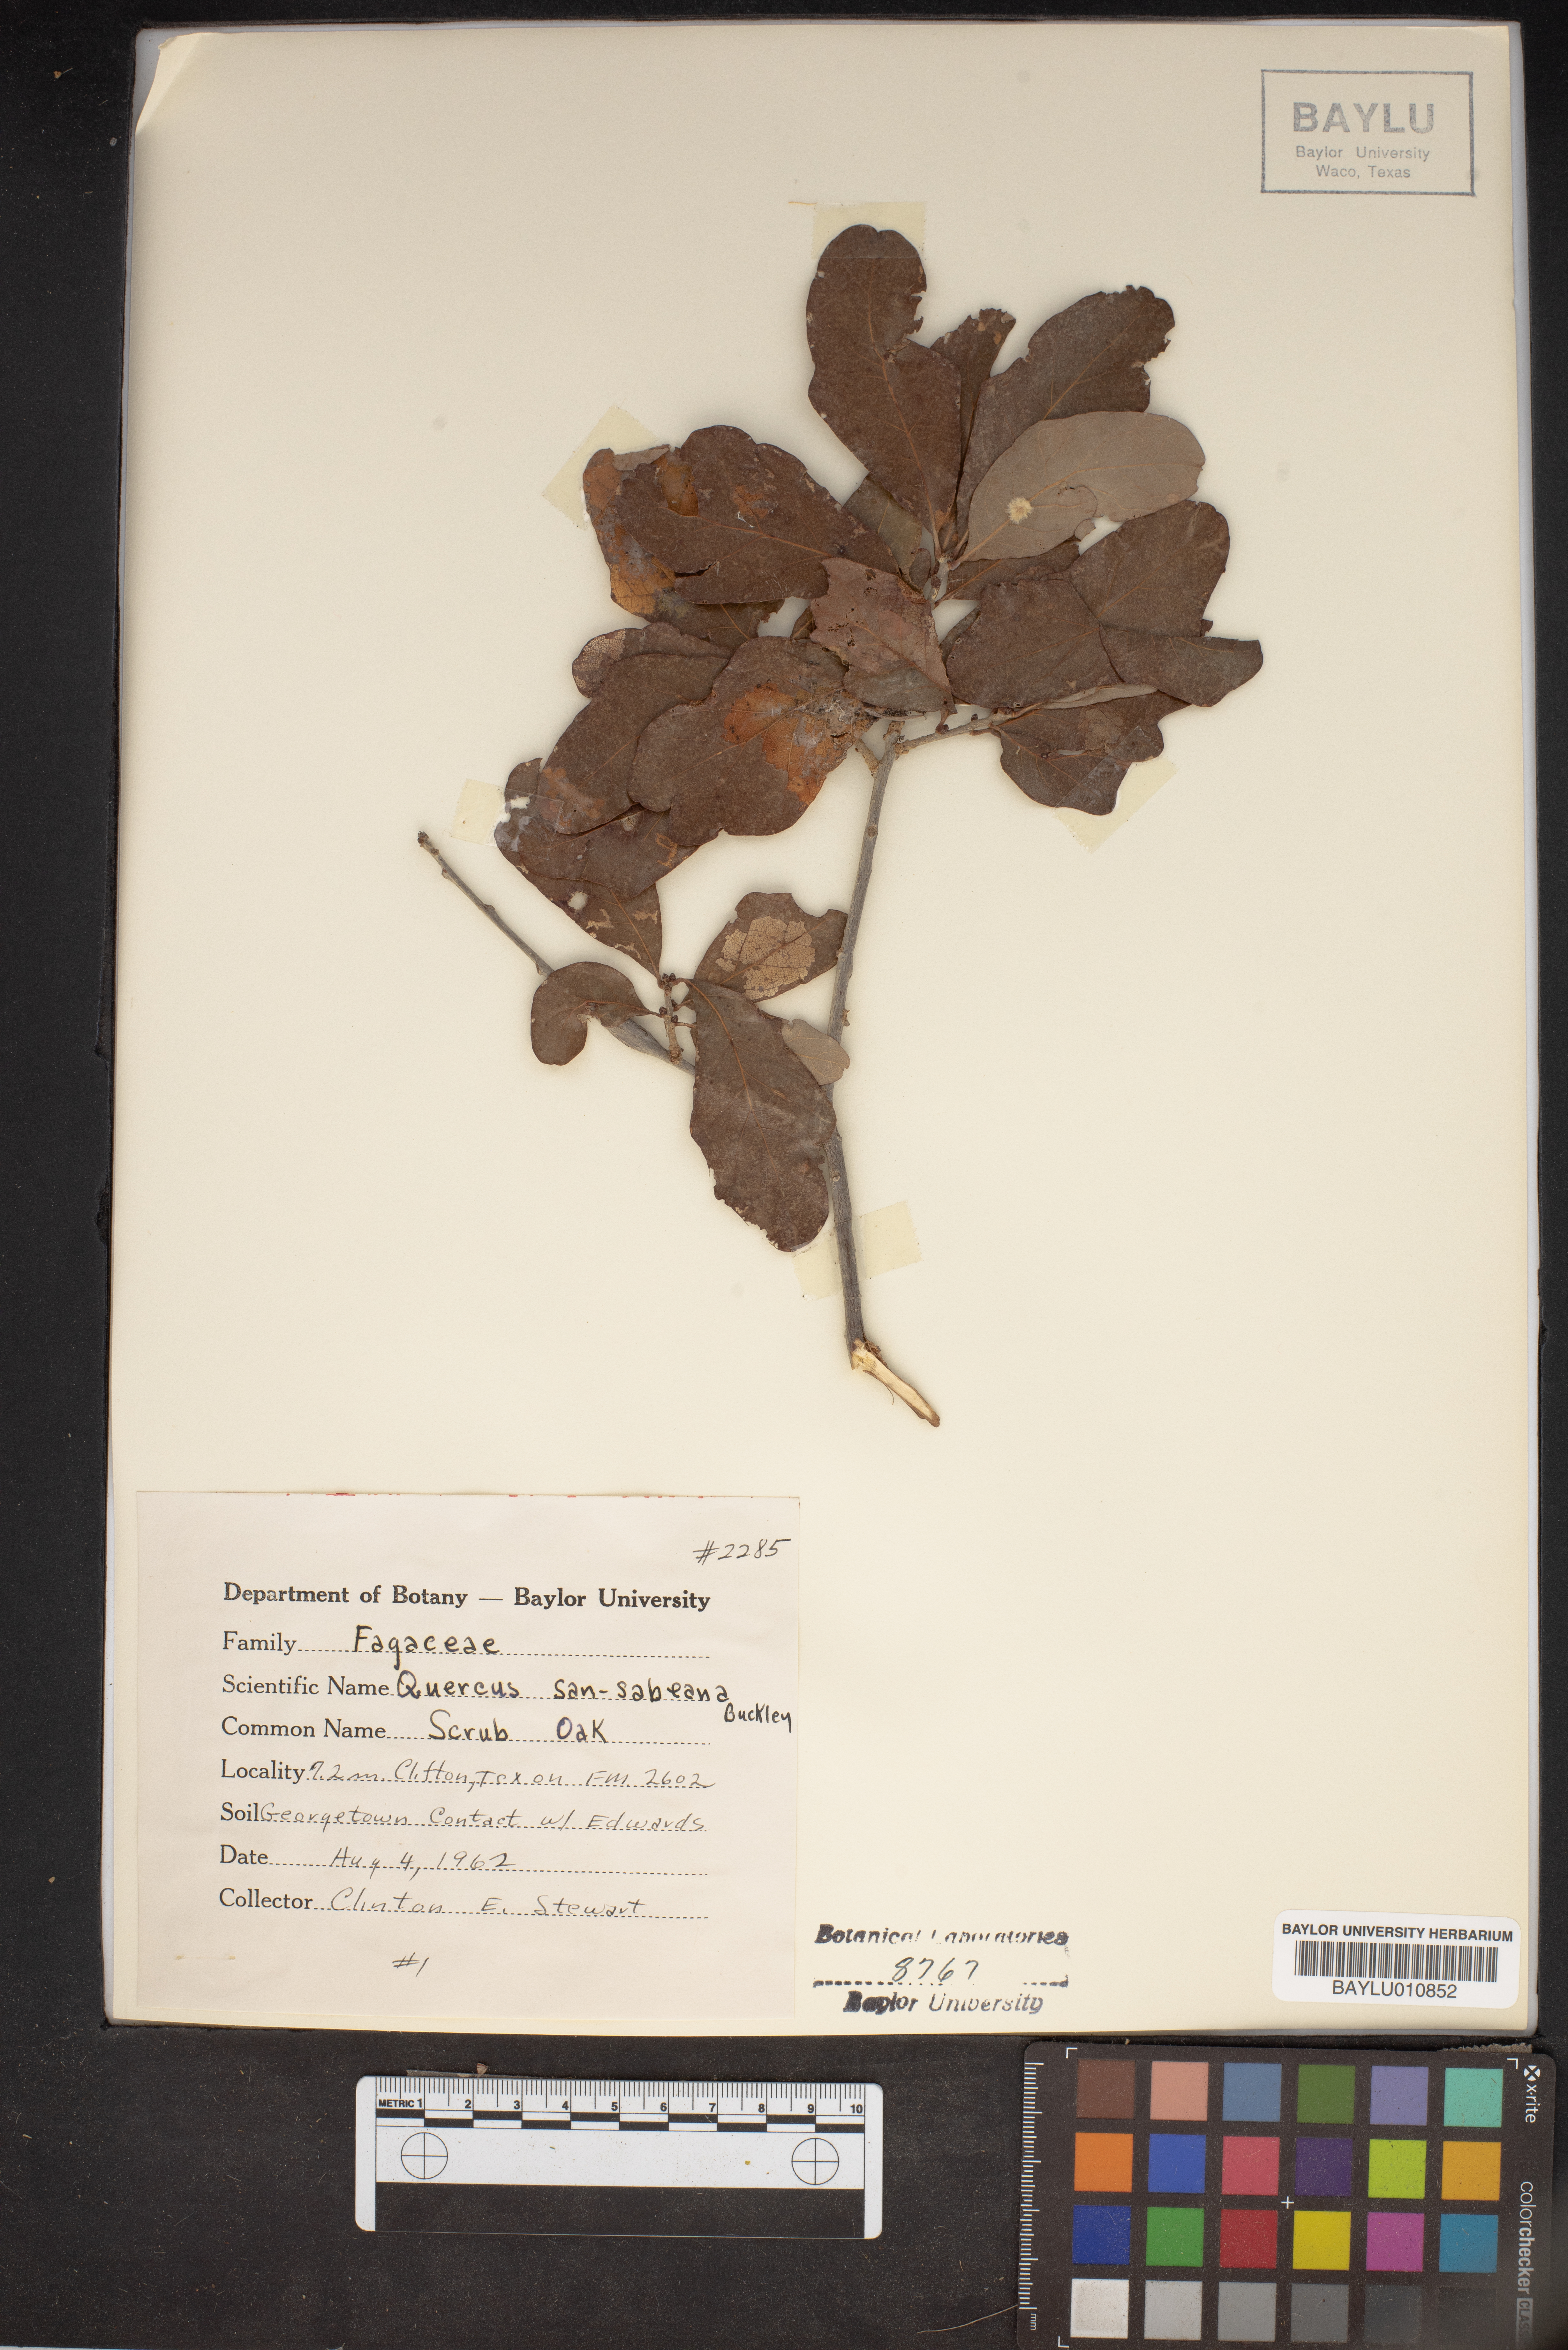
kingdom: Plantae
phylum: Tracheophyta
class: Magnoliopsida
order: Fagales
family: Fagaceae
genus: Quercus
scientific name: Quercus sinuata
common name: Durand oak
